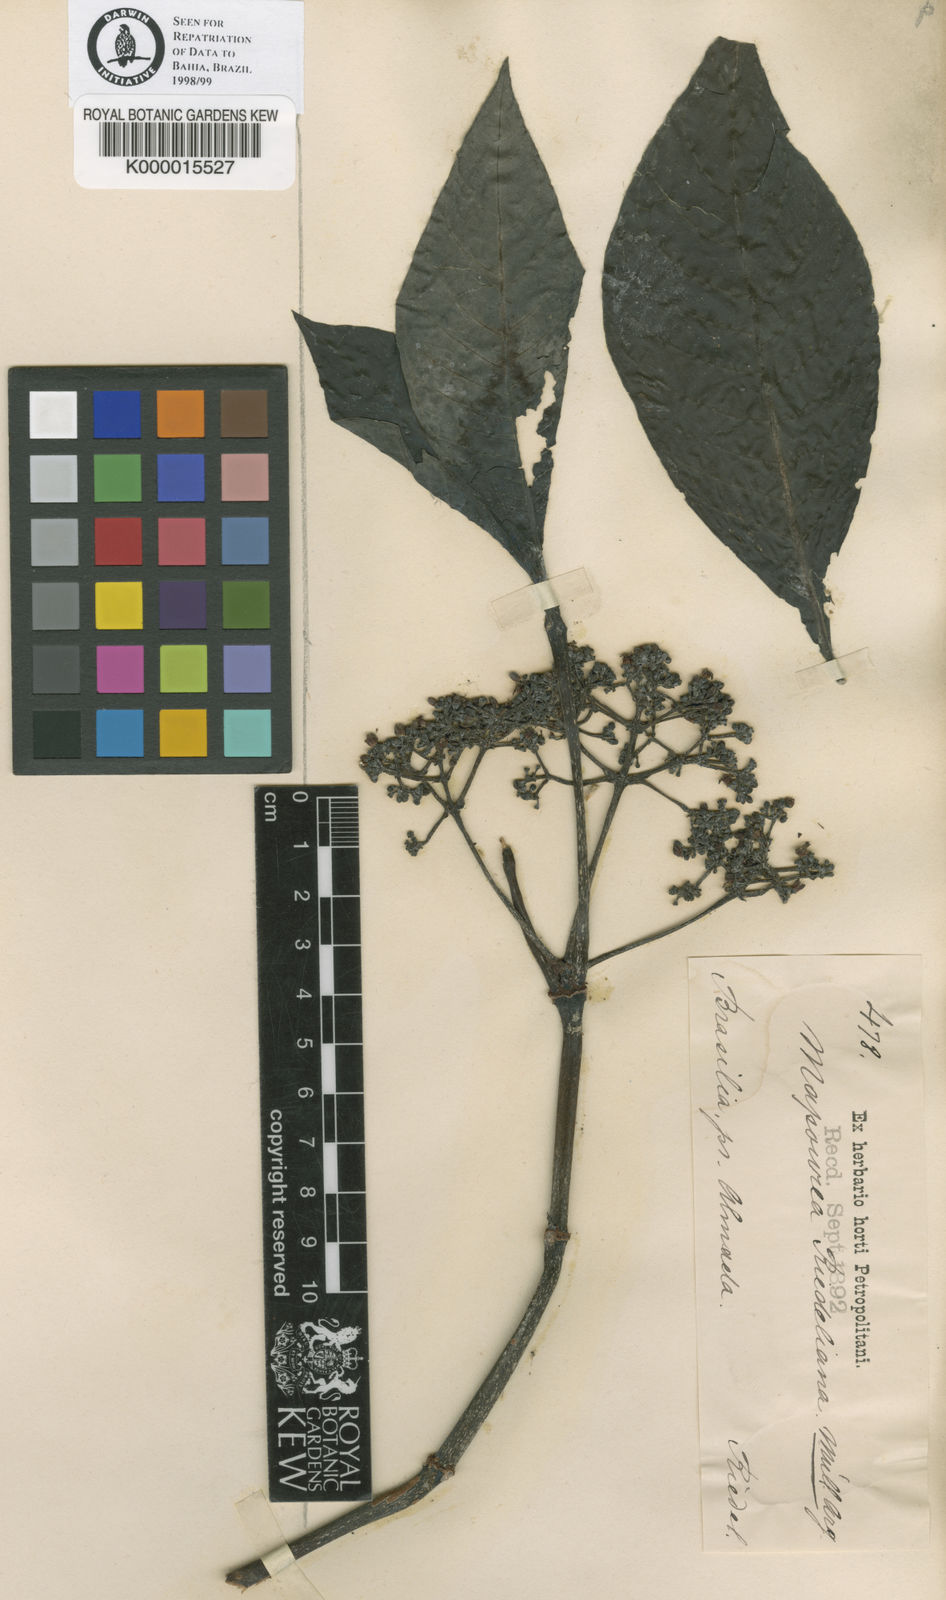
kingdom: Plantae
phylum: Tracheophyta
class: Magnoliopsida
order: Gentianales
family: Rubiaceae
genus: Psychotria
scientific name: Psychotria carthagenensis
